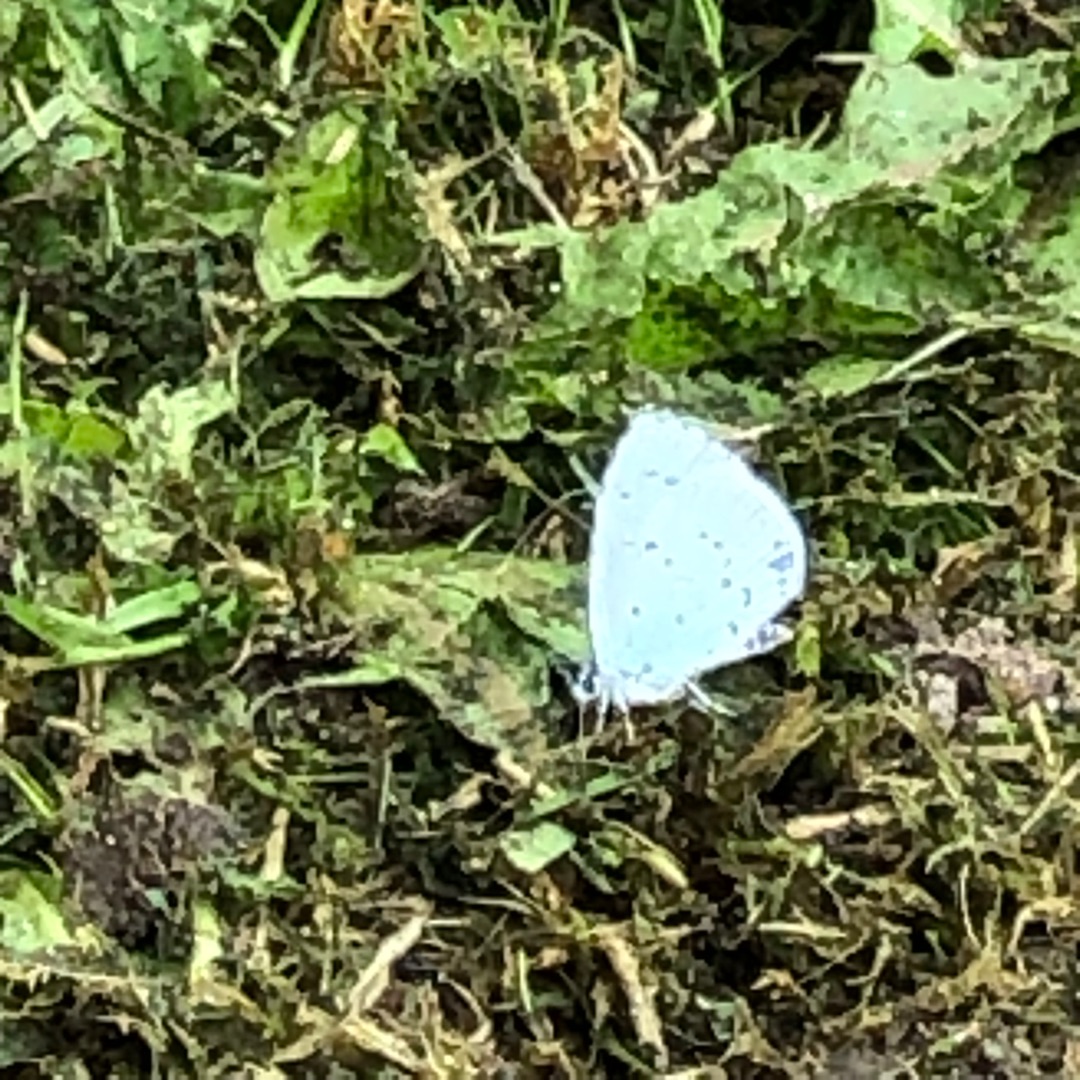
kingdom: Animalia
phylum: Arthropoda
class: Insecta
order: Lepidoptera
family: Lycaenidae
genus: Celastrina
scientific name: Celastrina argiolus
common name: Skovblåfugl
